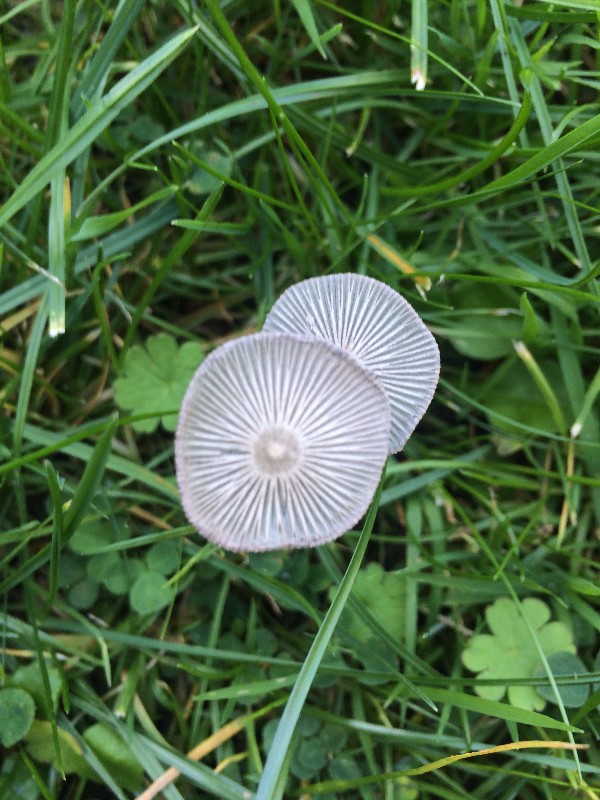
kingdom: Fungi
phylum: Basidiomycota
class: Agaricomycetes
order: Agaricales
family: Psathyrellaceae
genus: Coprinopsis
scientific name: Coprinopsis lagopus
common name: dunstokket blækhat
